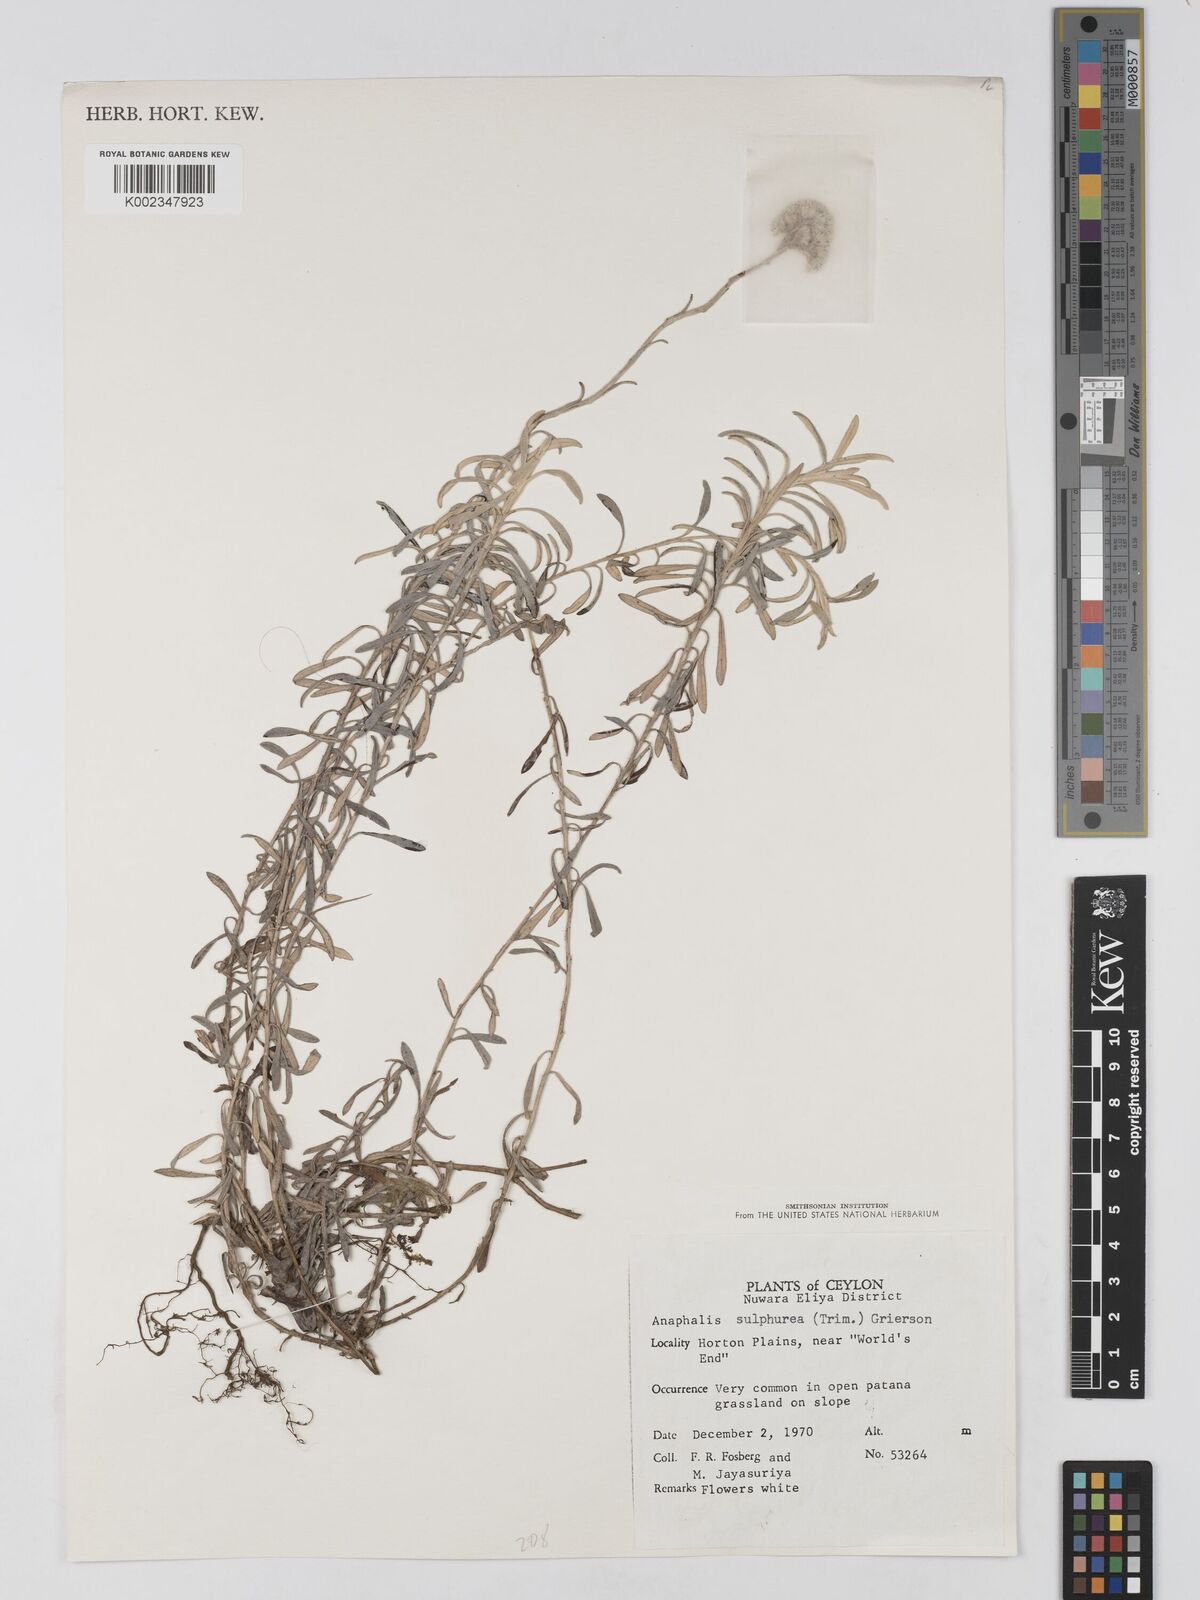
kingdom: Plantae
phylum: Tracheophyta
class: Magnoliopsida
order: Asterales
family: Asteraceae
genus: Anaphalis
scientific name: Anaphalis sulphurea
